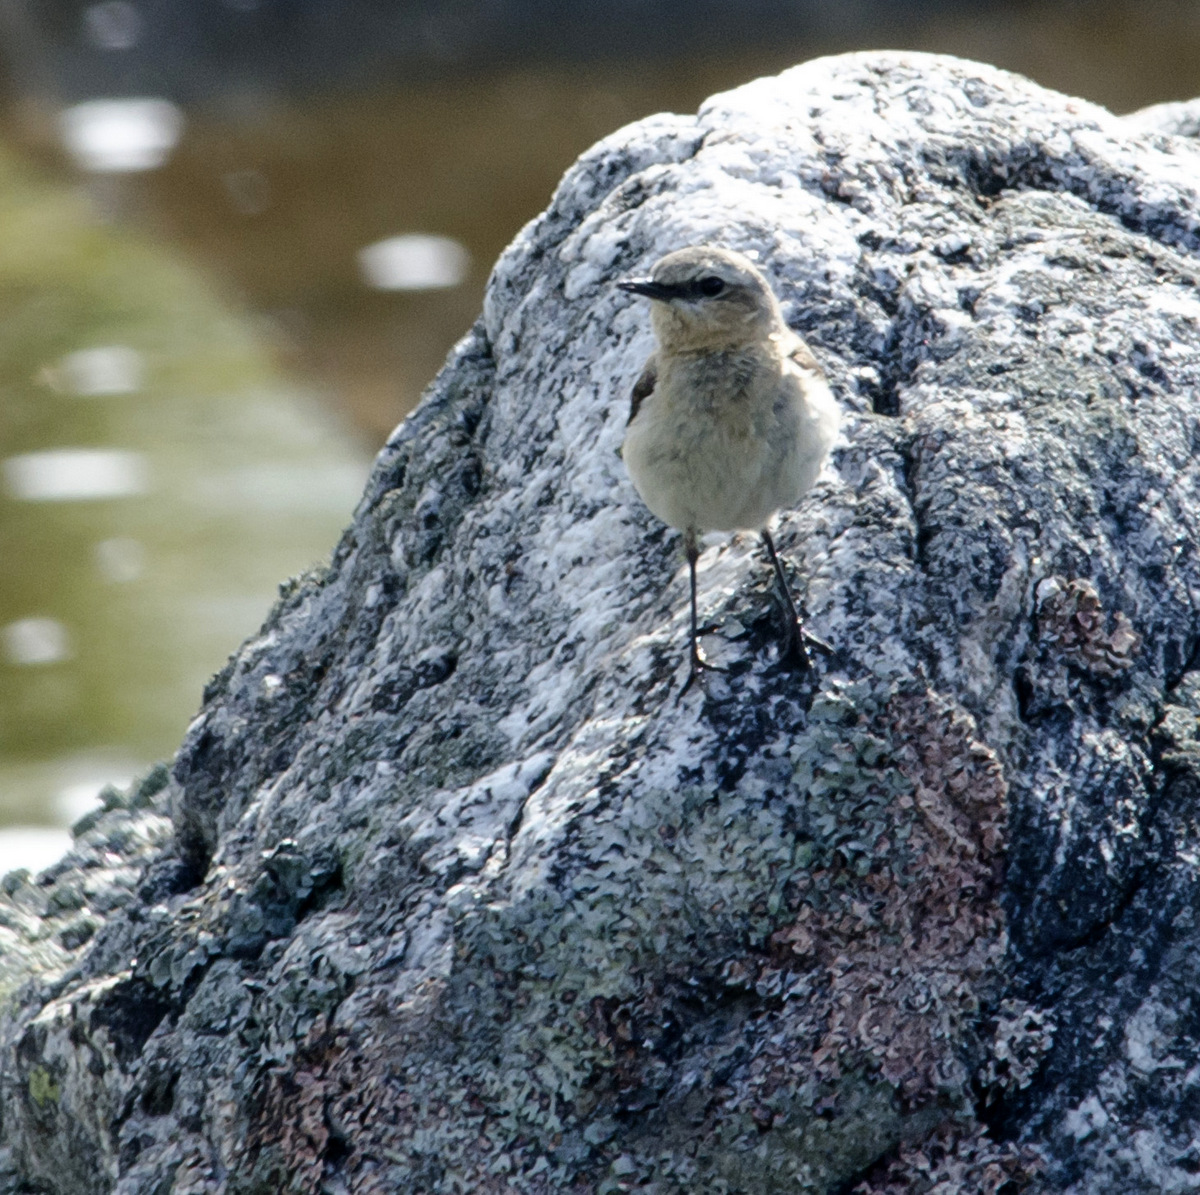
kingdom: Animalia
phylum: Chordata
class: Aves
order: Passeriformes
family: Muscicapidae
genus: Oenanthe
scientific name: Oenanthe oenanthe
